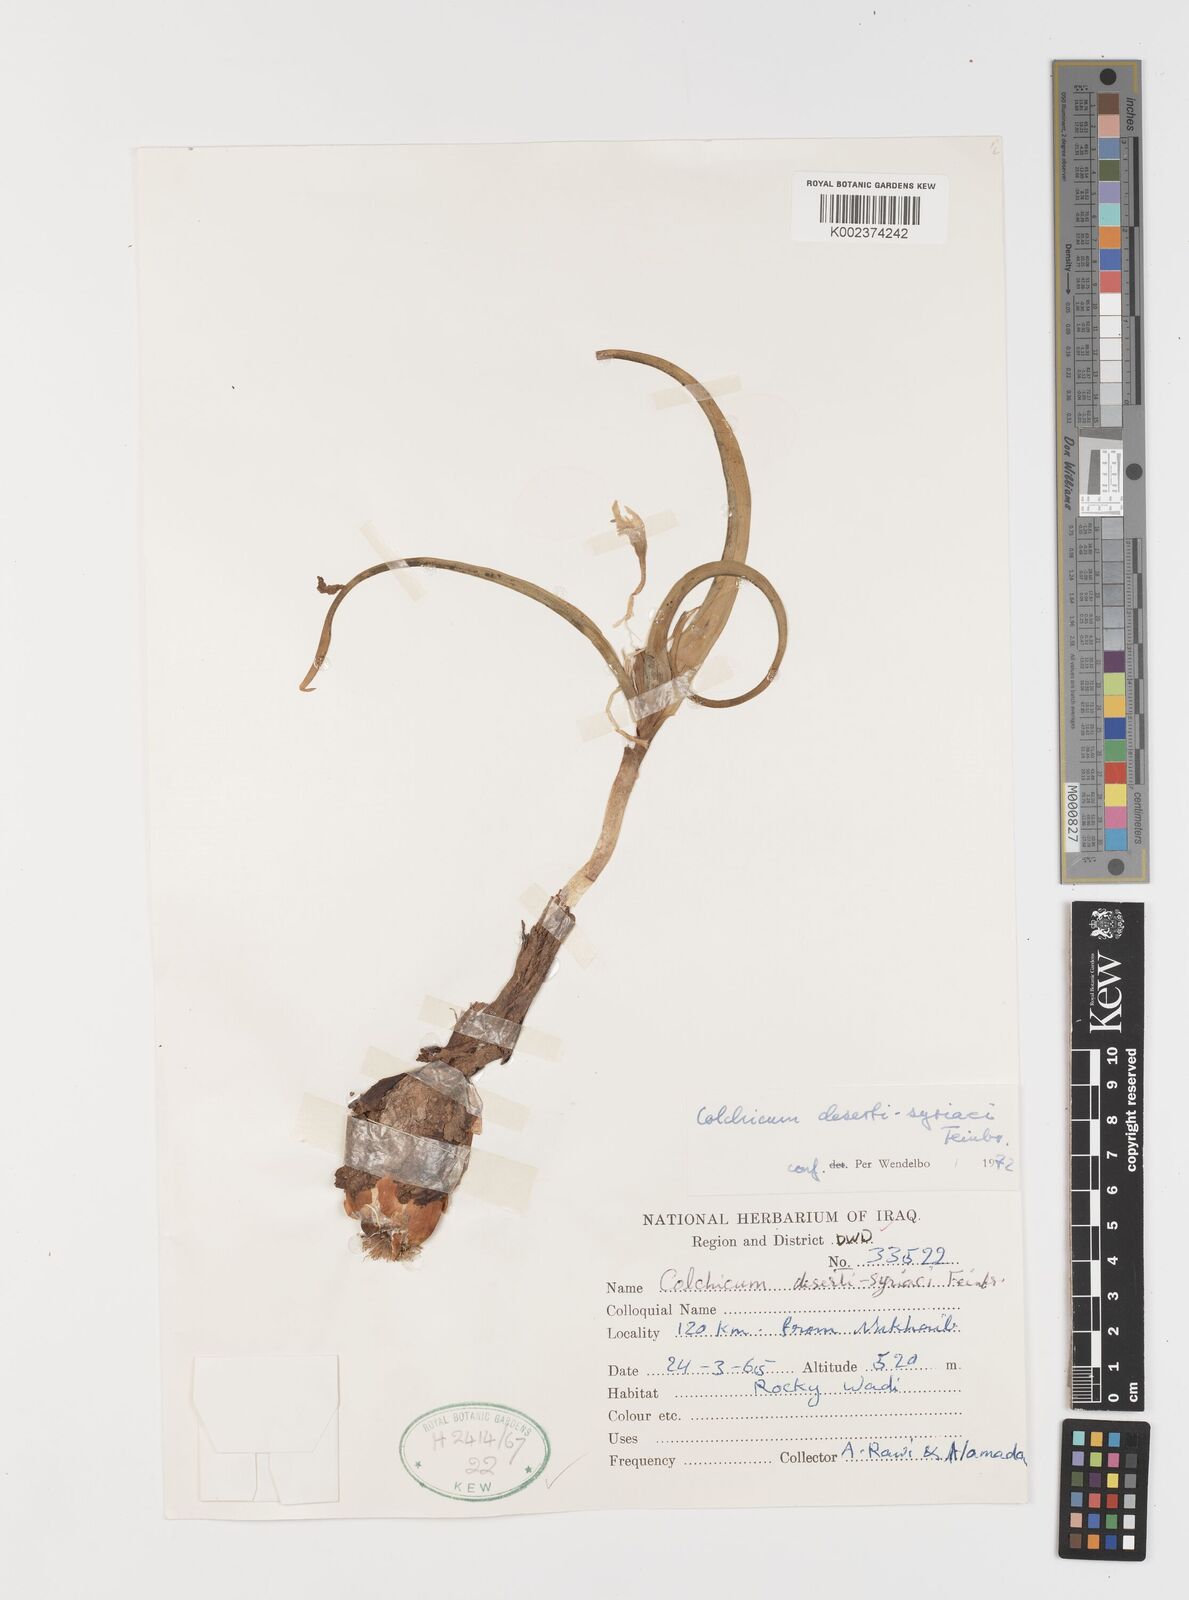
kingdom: Plantae
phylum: Tracheophyta
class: Liliopsida
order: Liliales
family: Colchicaceae
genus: Colchicum
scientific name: Colchicum schimperi
